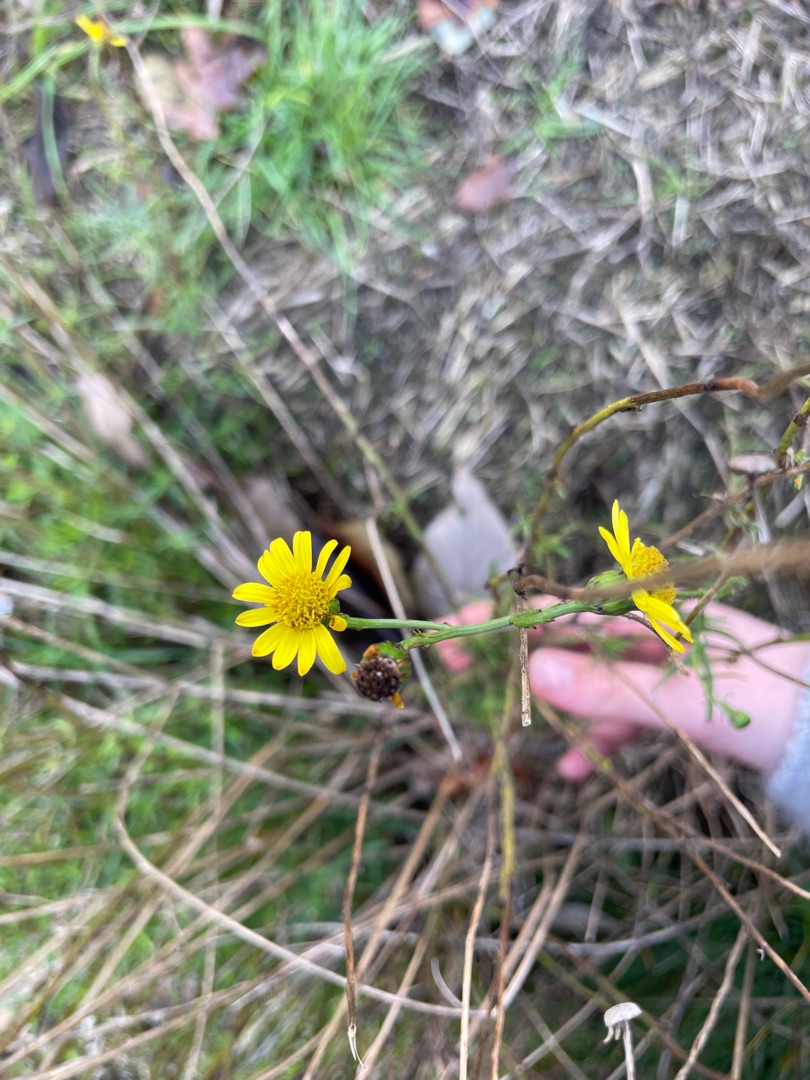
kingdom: Plantae
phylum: Tracheophyta
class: Magnoliopsida
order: Asterales
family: Asteraceae
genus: Senecio
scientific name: Senecio inaequidens
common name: Smalbladet brandbæger
